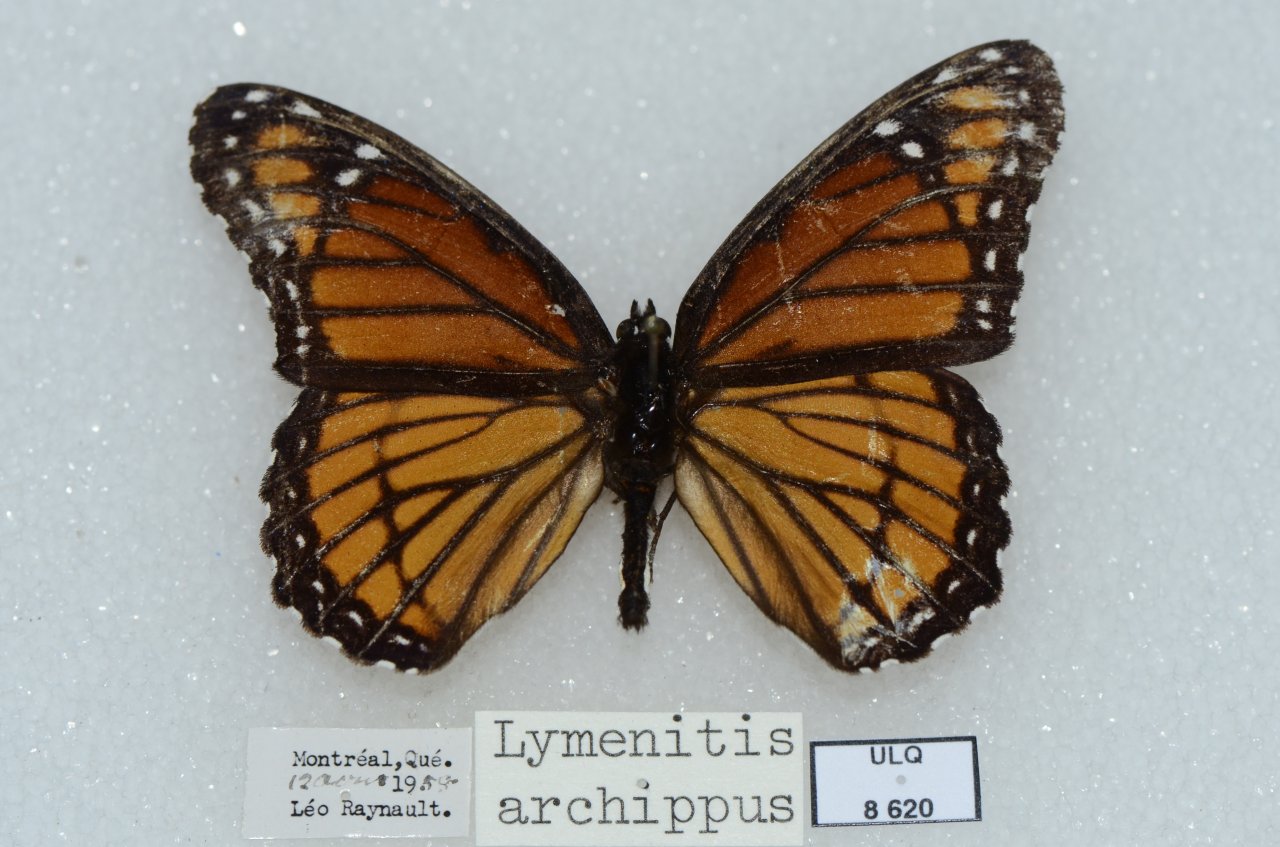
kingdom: Animalia
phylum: Arthropoda
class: Insecta
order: Lepidoptera
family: Nymphalidae
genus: Limenitis
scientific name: Limenitis archippus
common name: Viceroy
